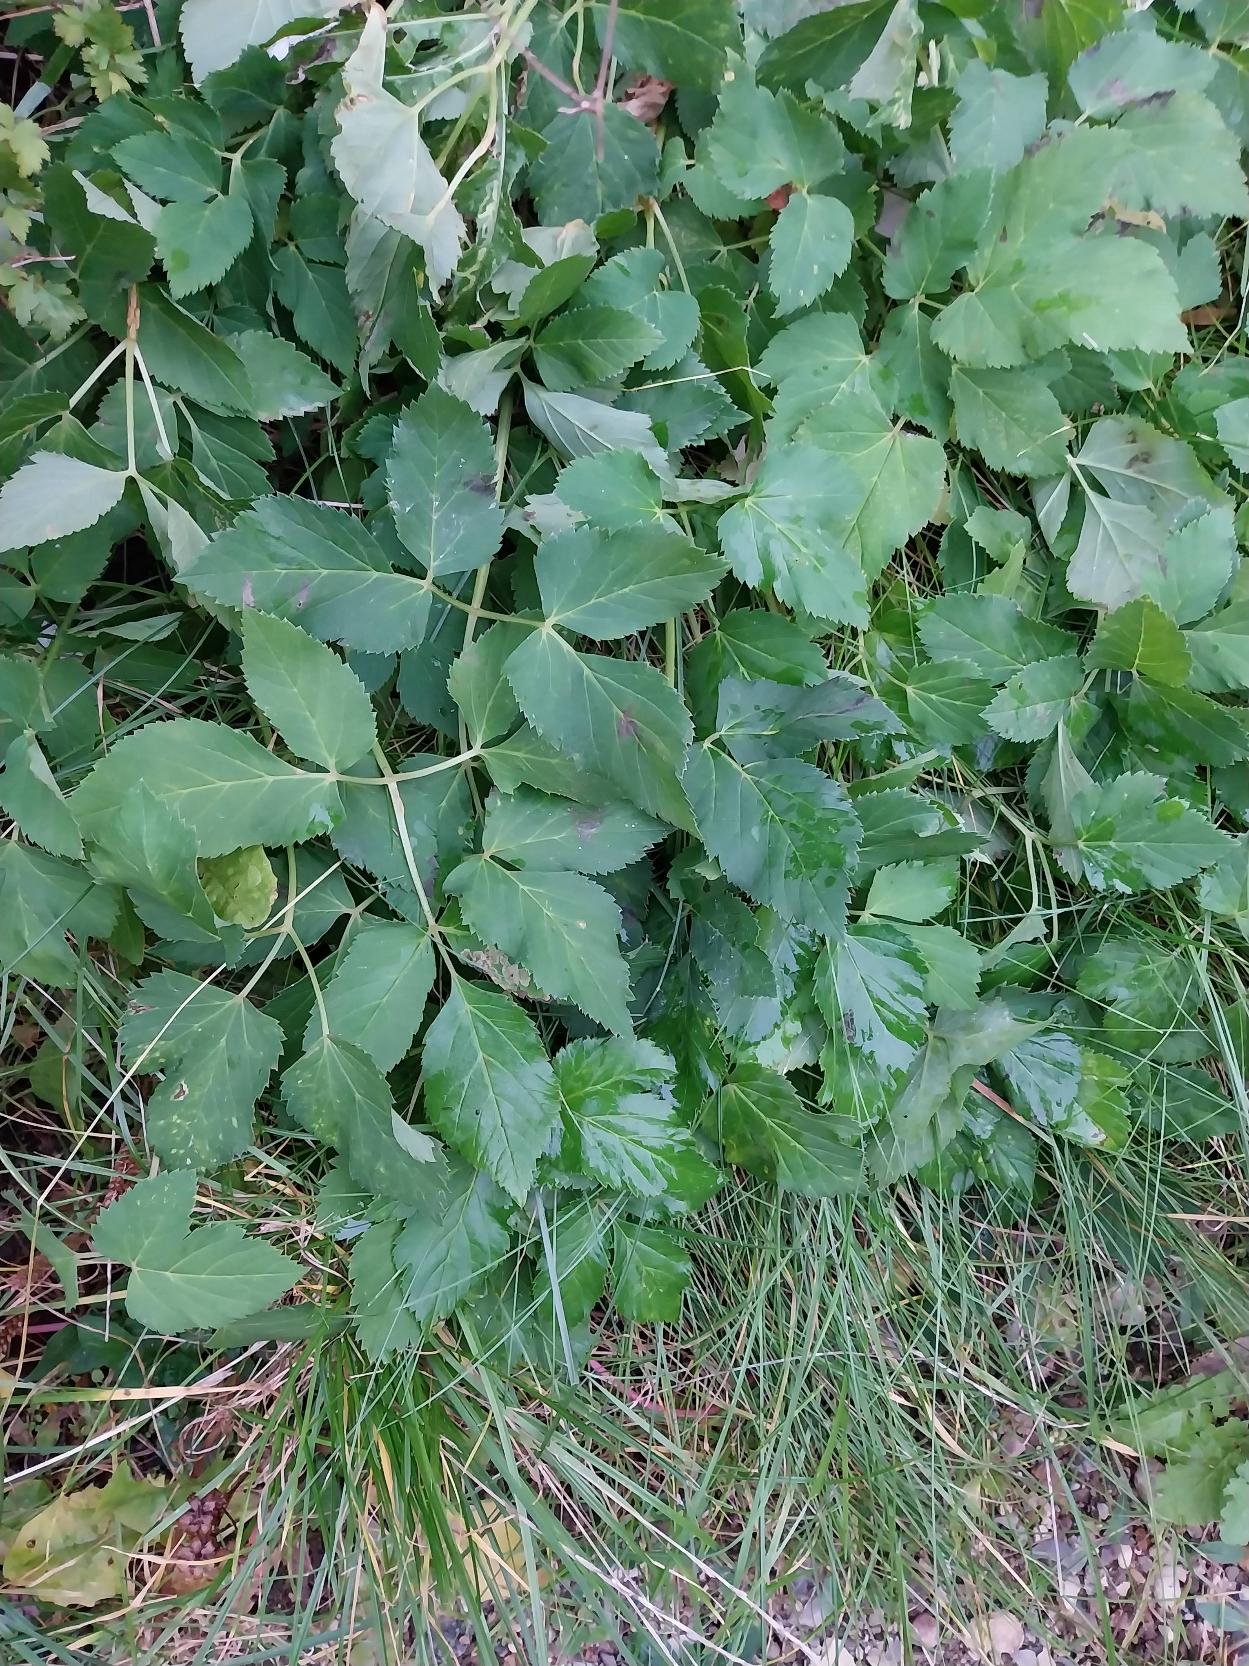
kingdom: Plantae
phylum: Tracheophyta
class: Magnoliopsida
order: Apiales
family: Apiaceae
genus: Aegopodium
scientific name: Aegopodium podagraria
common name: Skvalderkål
